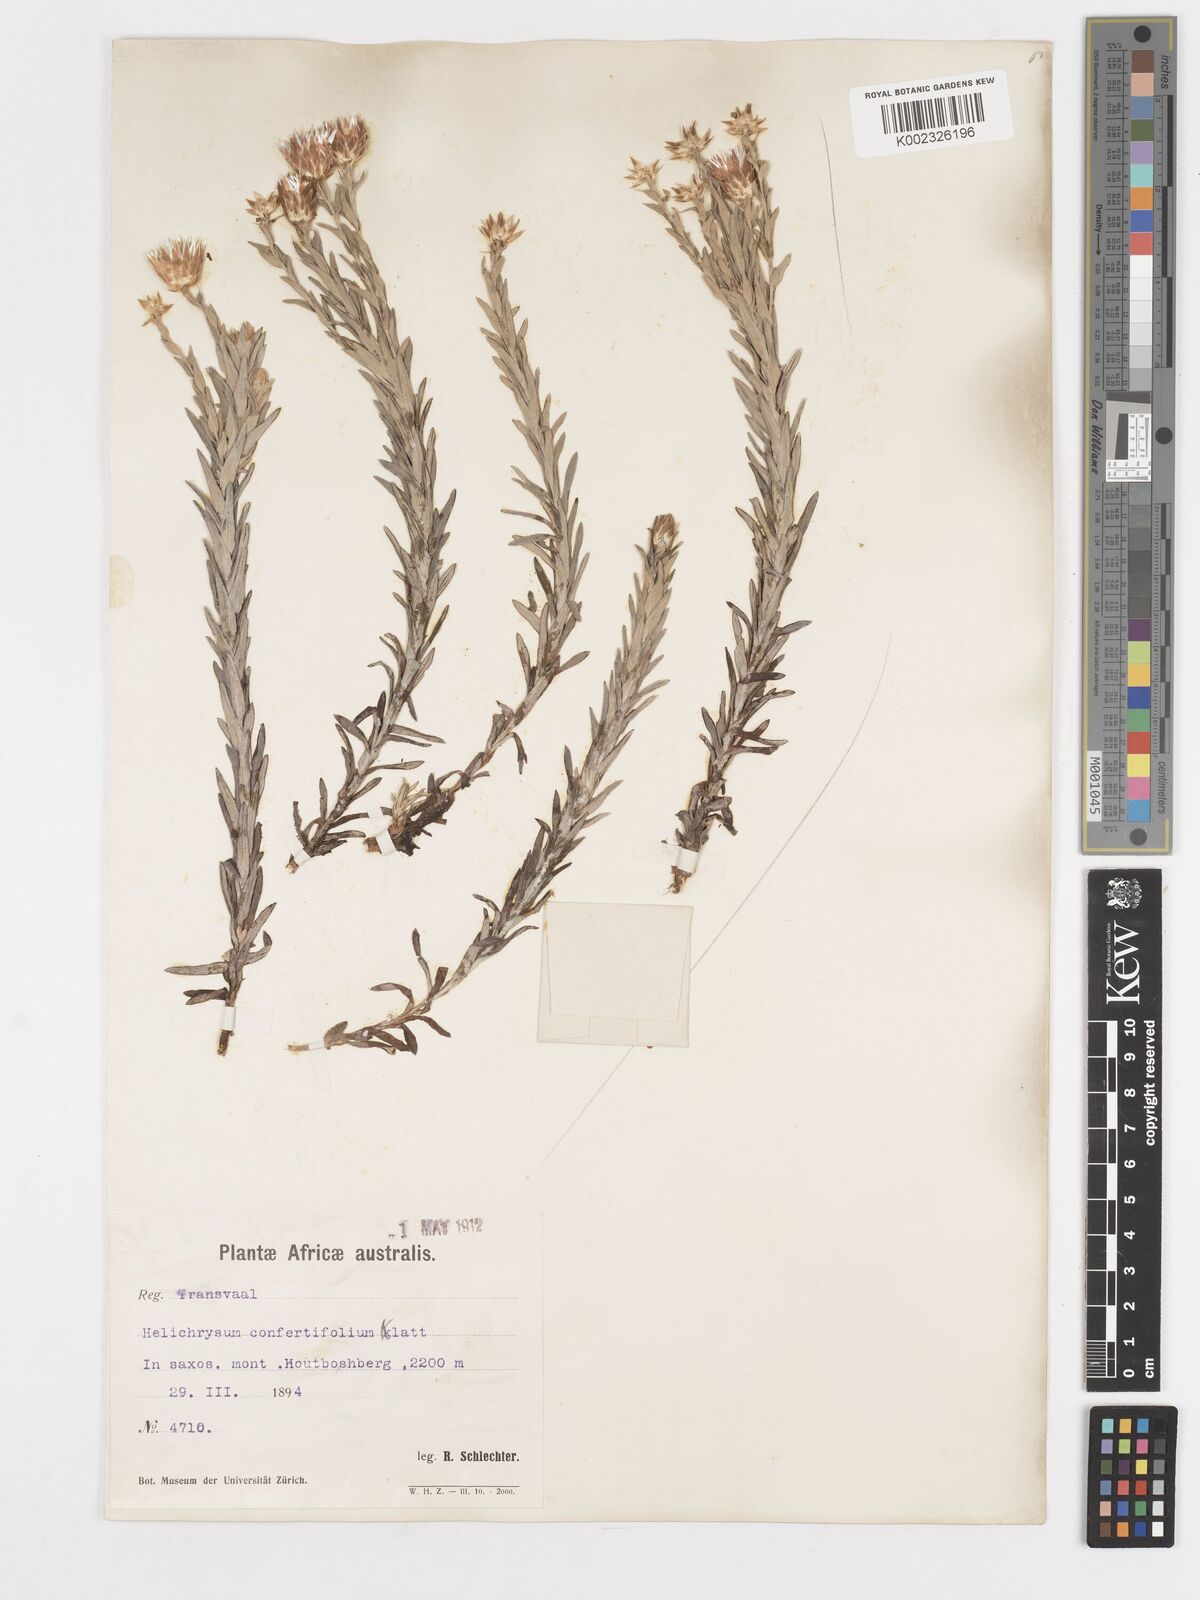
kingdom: Plantae
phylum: Tracheophyta
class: Magnoliopsida
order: Asterales
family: Asteraceae
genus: Helichrysum
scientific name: Helichrysum confertifolium
